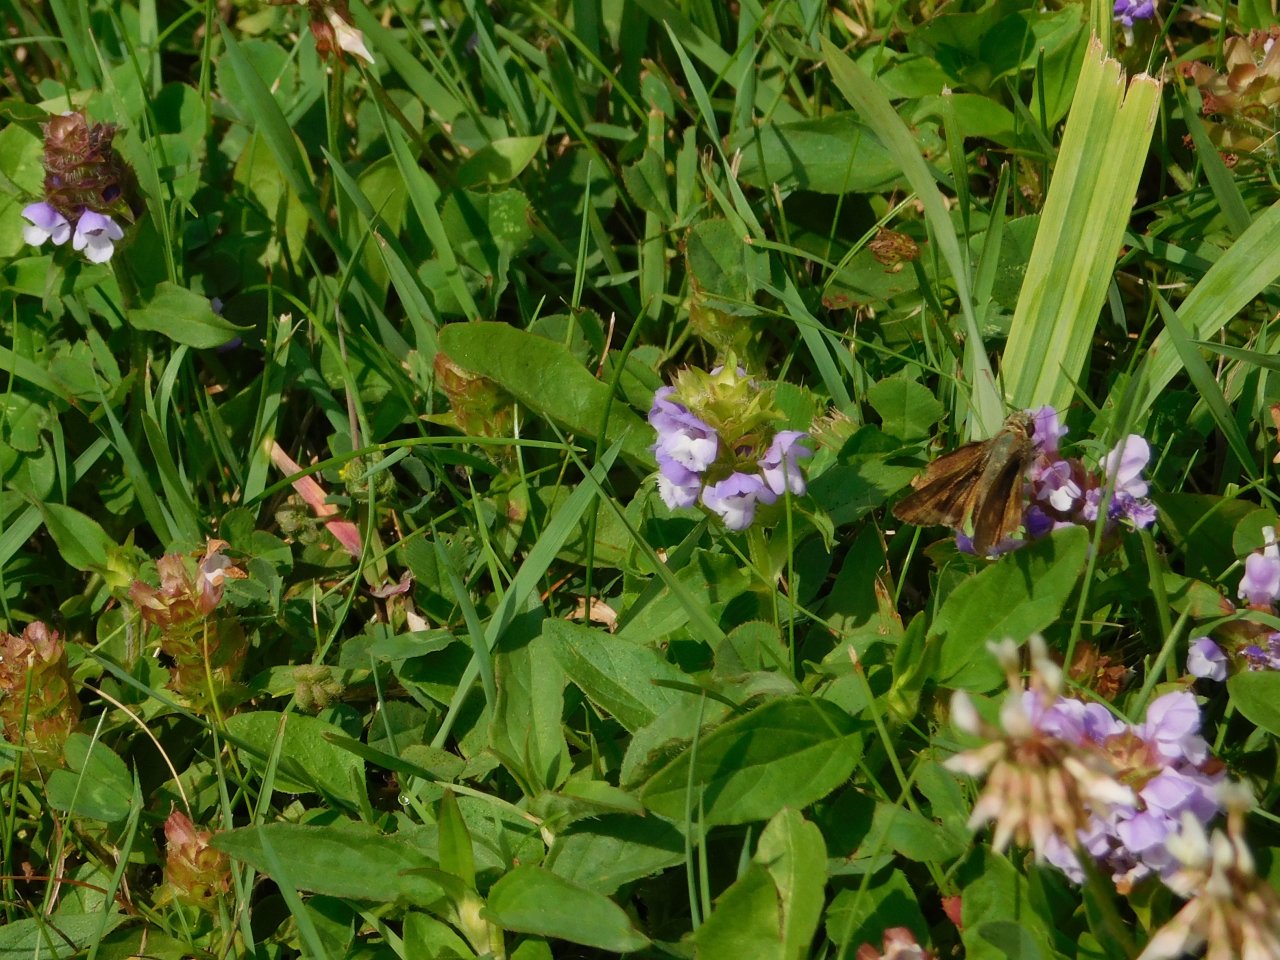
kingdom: Animalia
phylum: Arthropoda
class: Insecta
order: Lepidoptera
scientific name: Lepidoptera
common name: Butterflies
